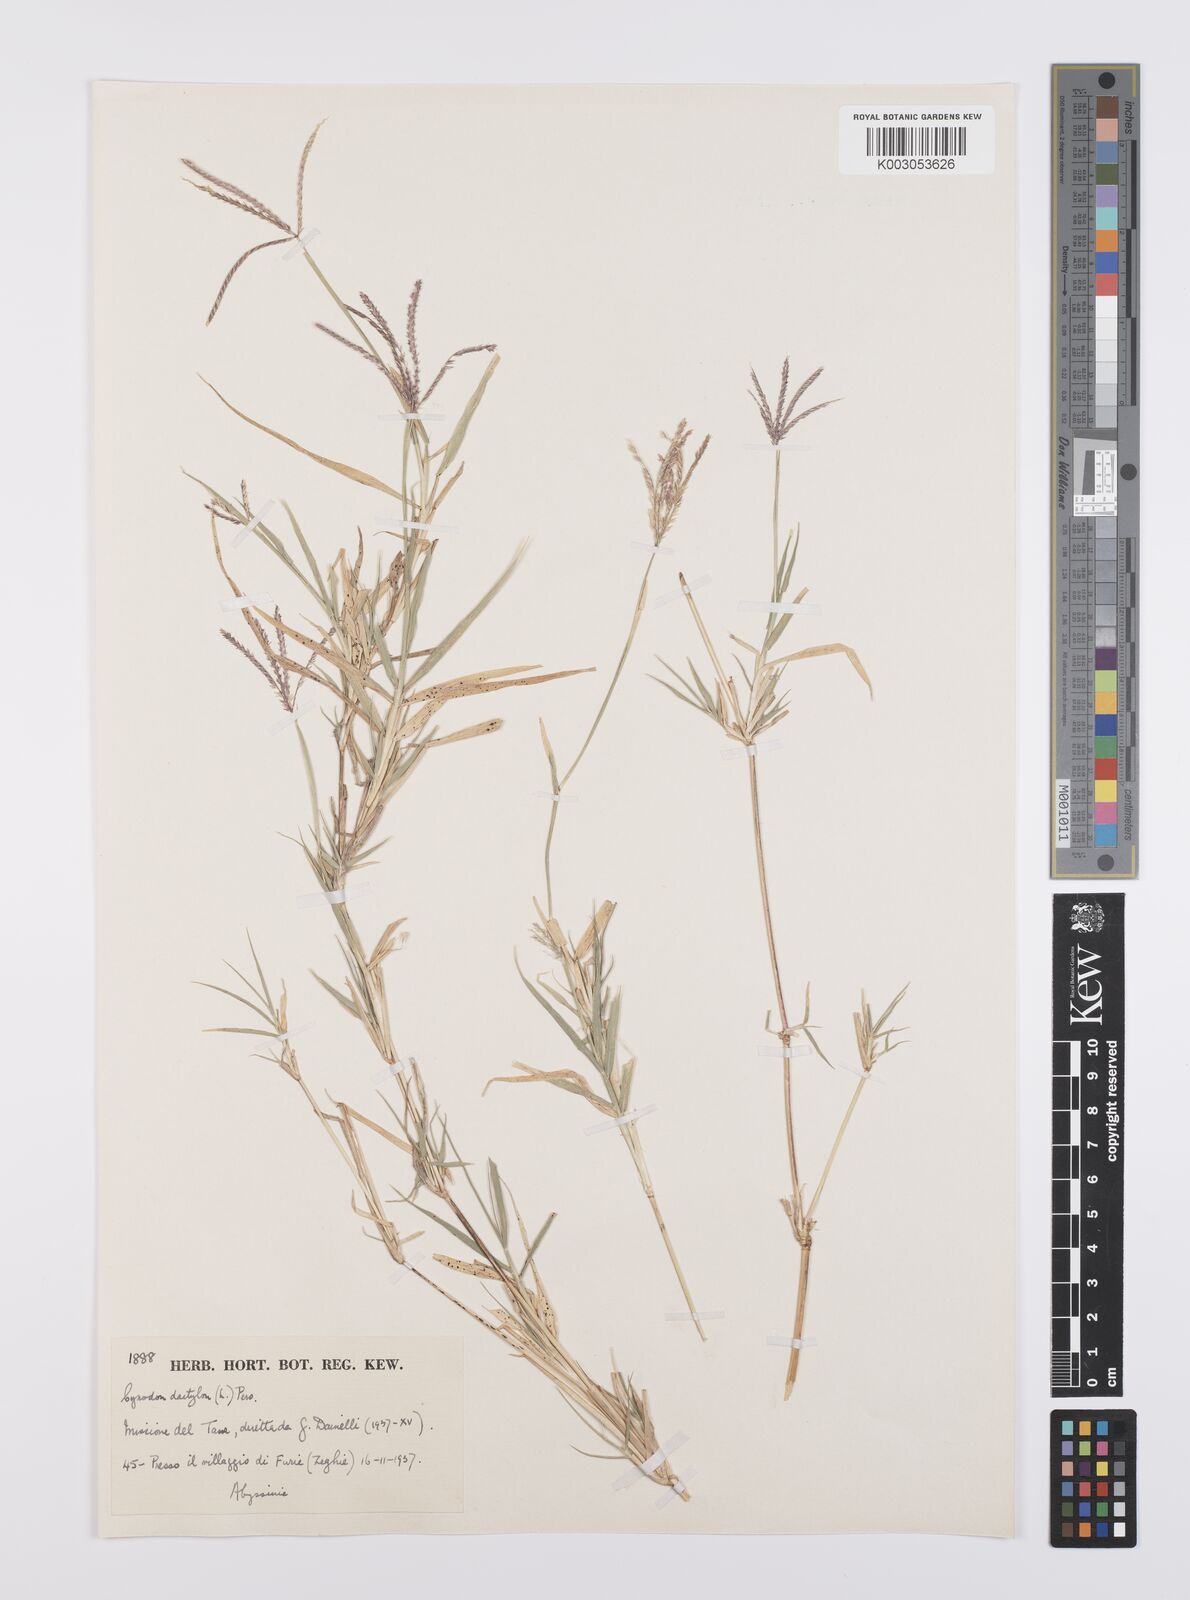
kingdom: Plantae
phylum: Tracheophyta
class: Liliopsida
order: Poales
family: Poaceae
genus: Cynodon
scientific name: Cynodon nlemfuensis
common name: African bermudagrass
